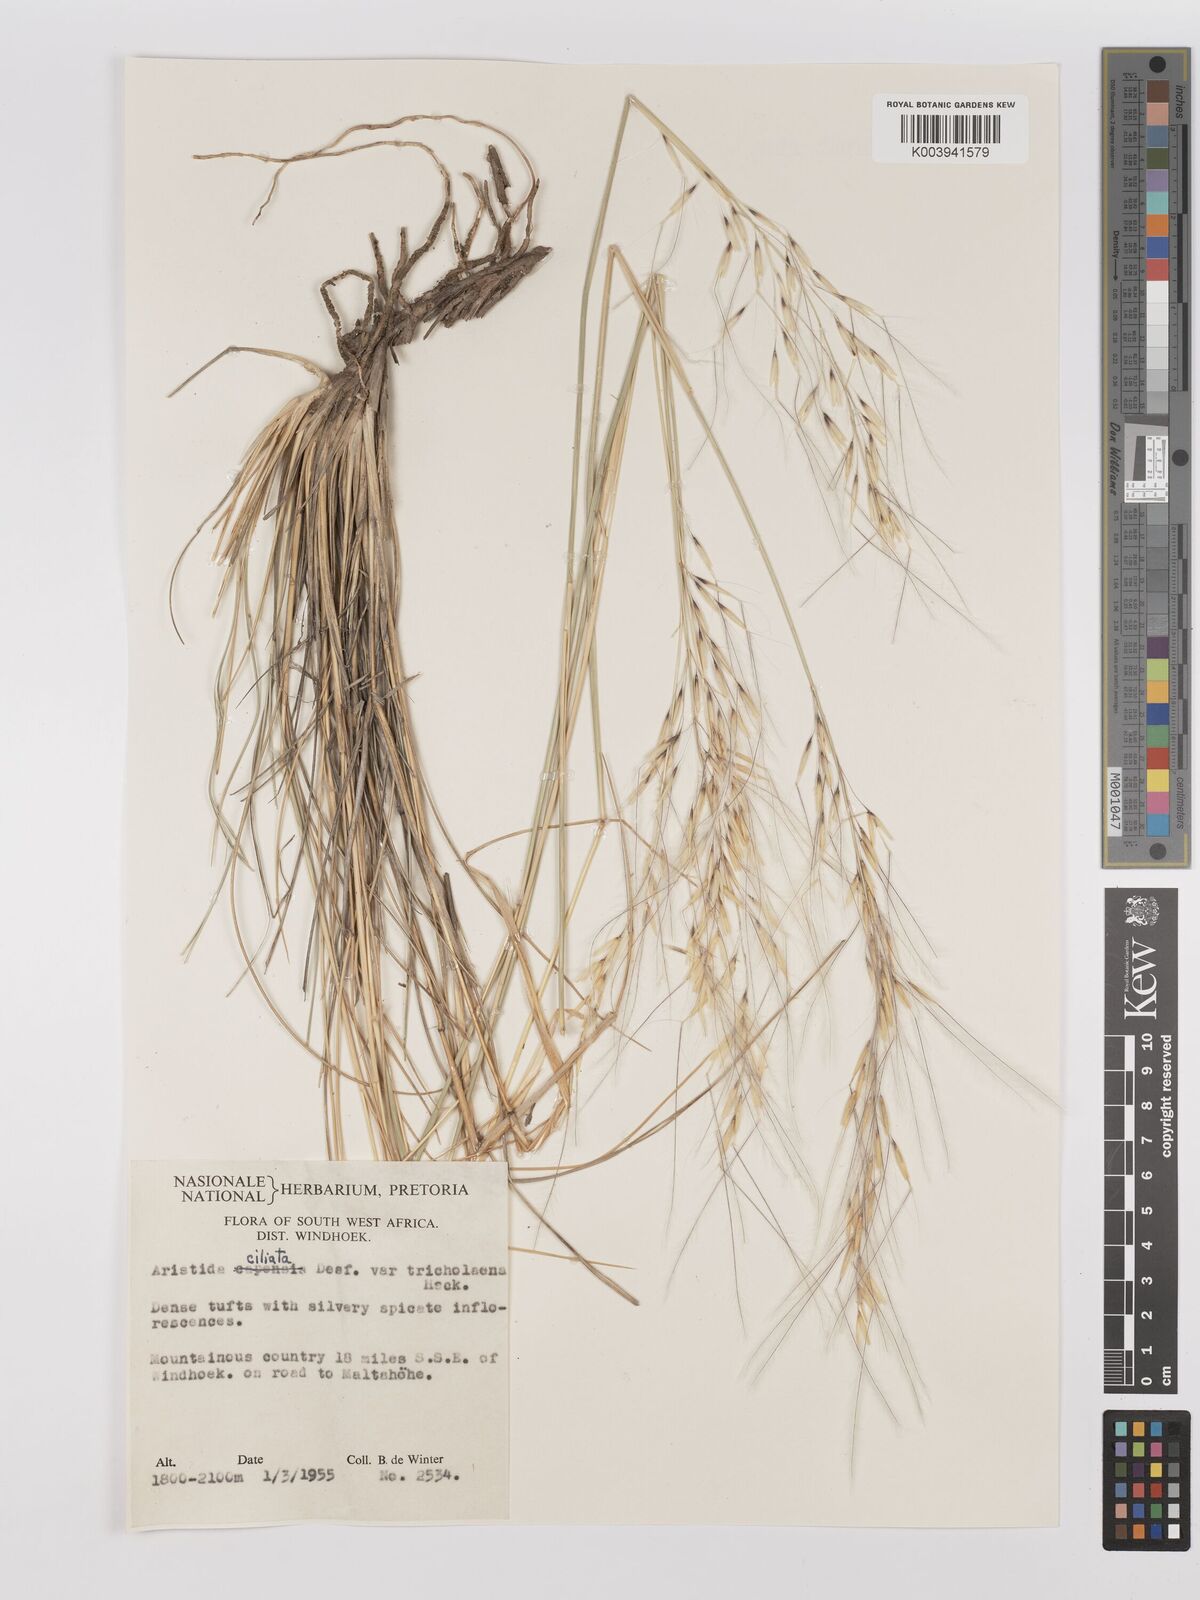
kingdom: Plantae
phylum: Tracheophyta
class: Liliopsida
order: Poales
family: Poaceae
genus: Stipagrostis
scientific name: Stipagrostis ciliata
